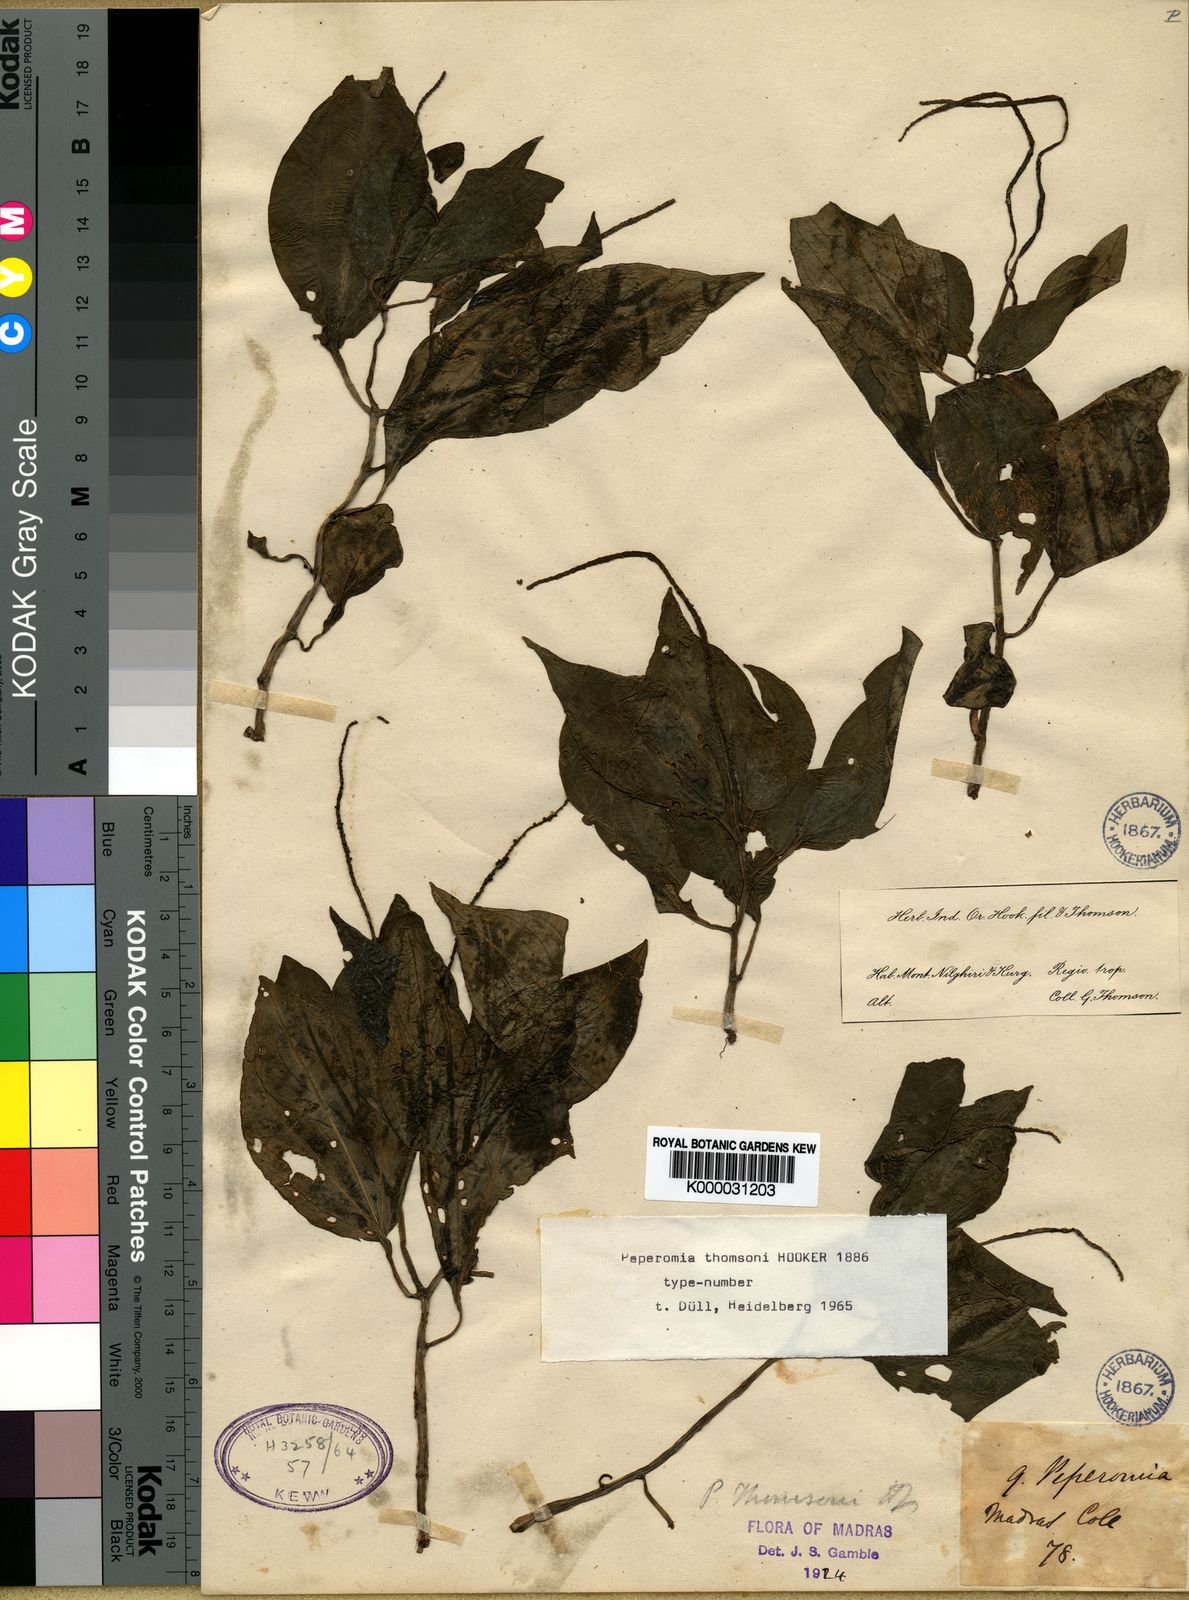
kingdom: Plantae
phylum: Tracheophyta
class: Magnoliopsida
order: Piperales
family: Piperaceae
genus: Peperomia
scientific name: Peperomia
